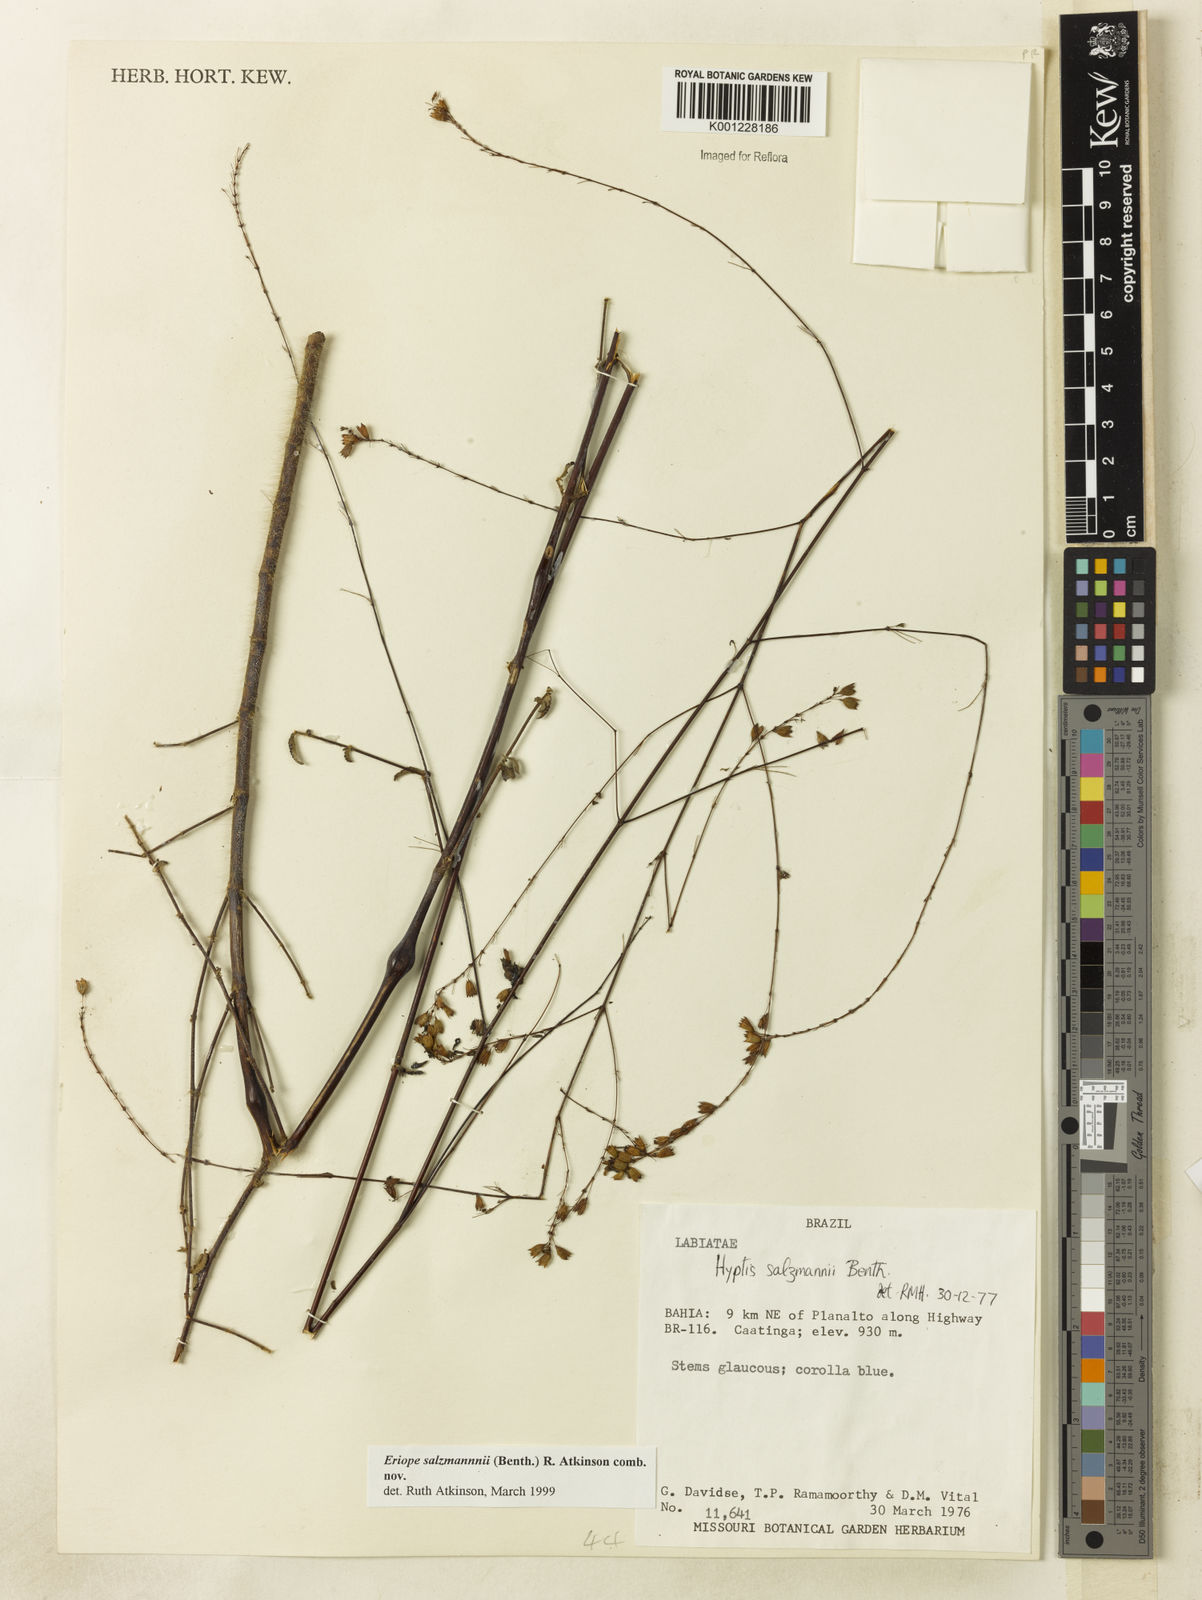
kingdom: Plantae
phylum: Tracheophyta
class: Magnoliopsida
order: Lamiales
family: Lamiaceae
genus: Hypenia
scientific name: Hypenia salzmannii
